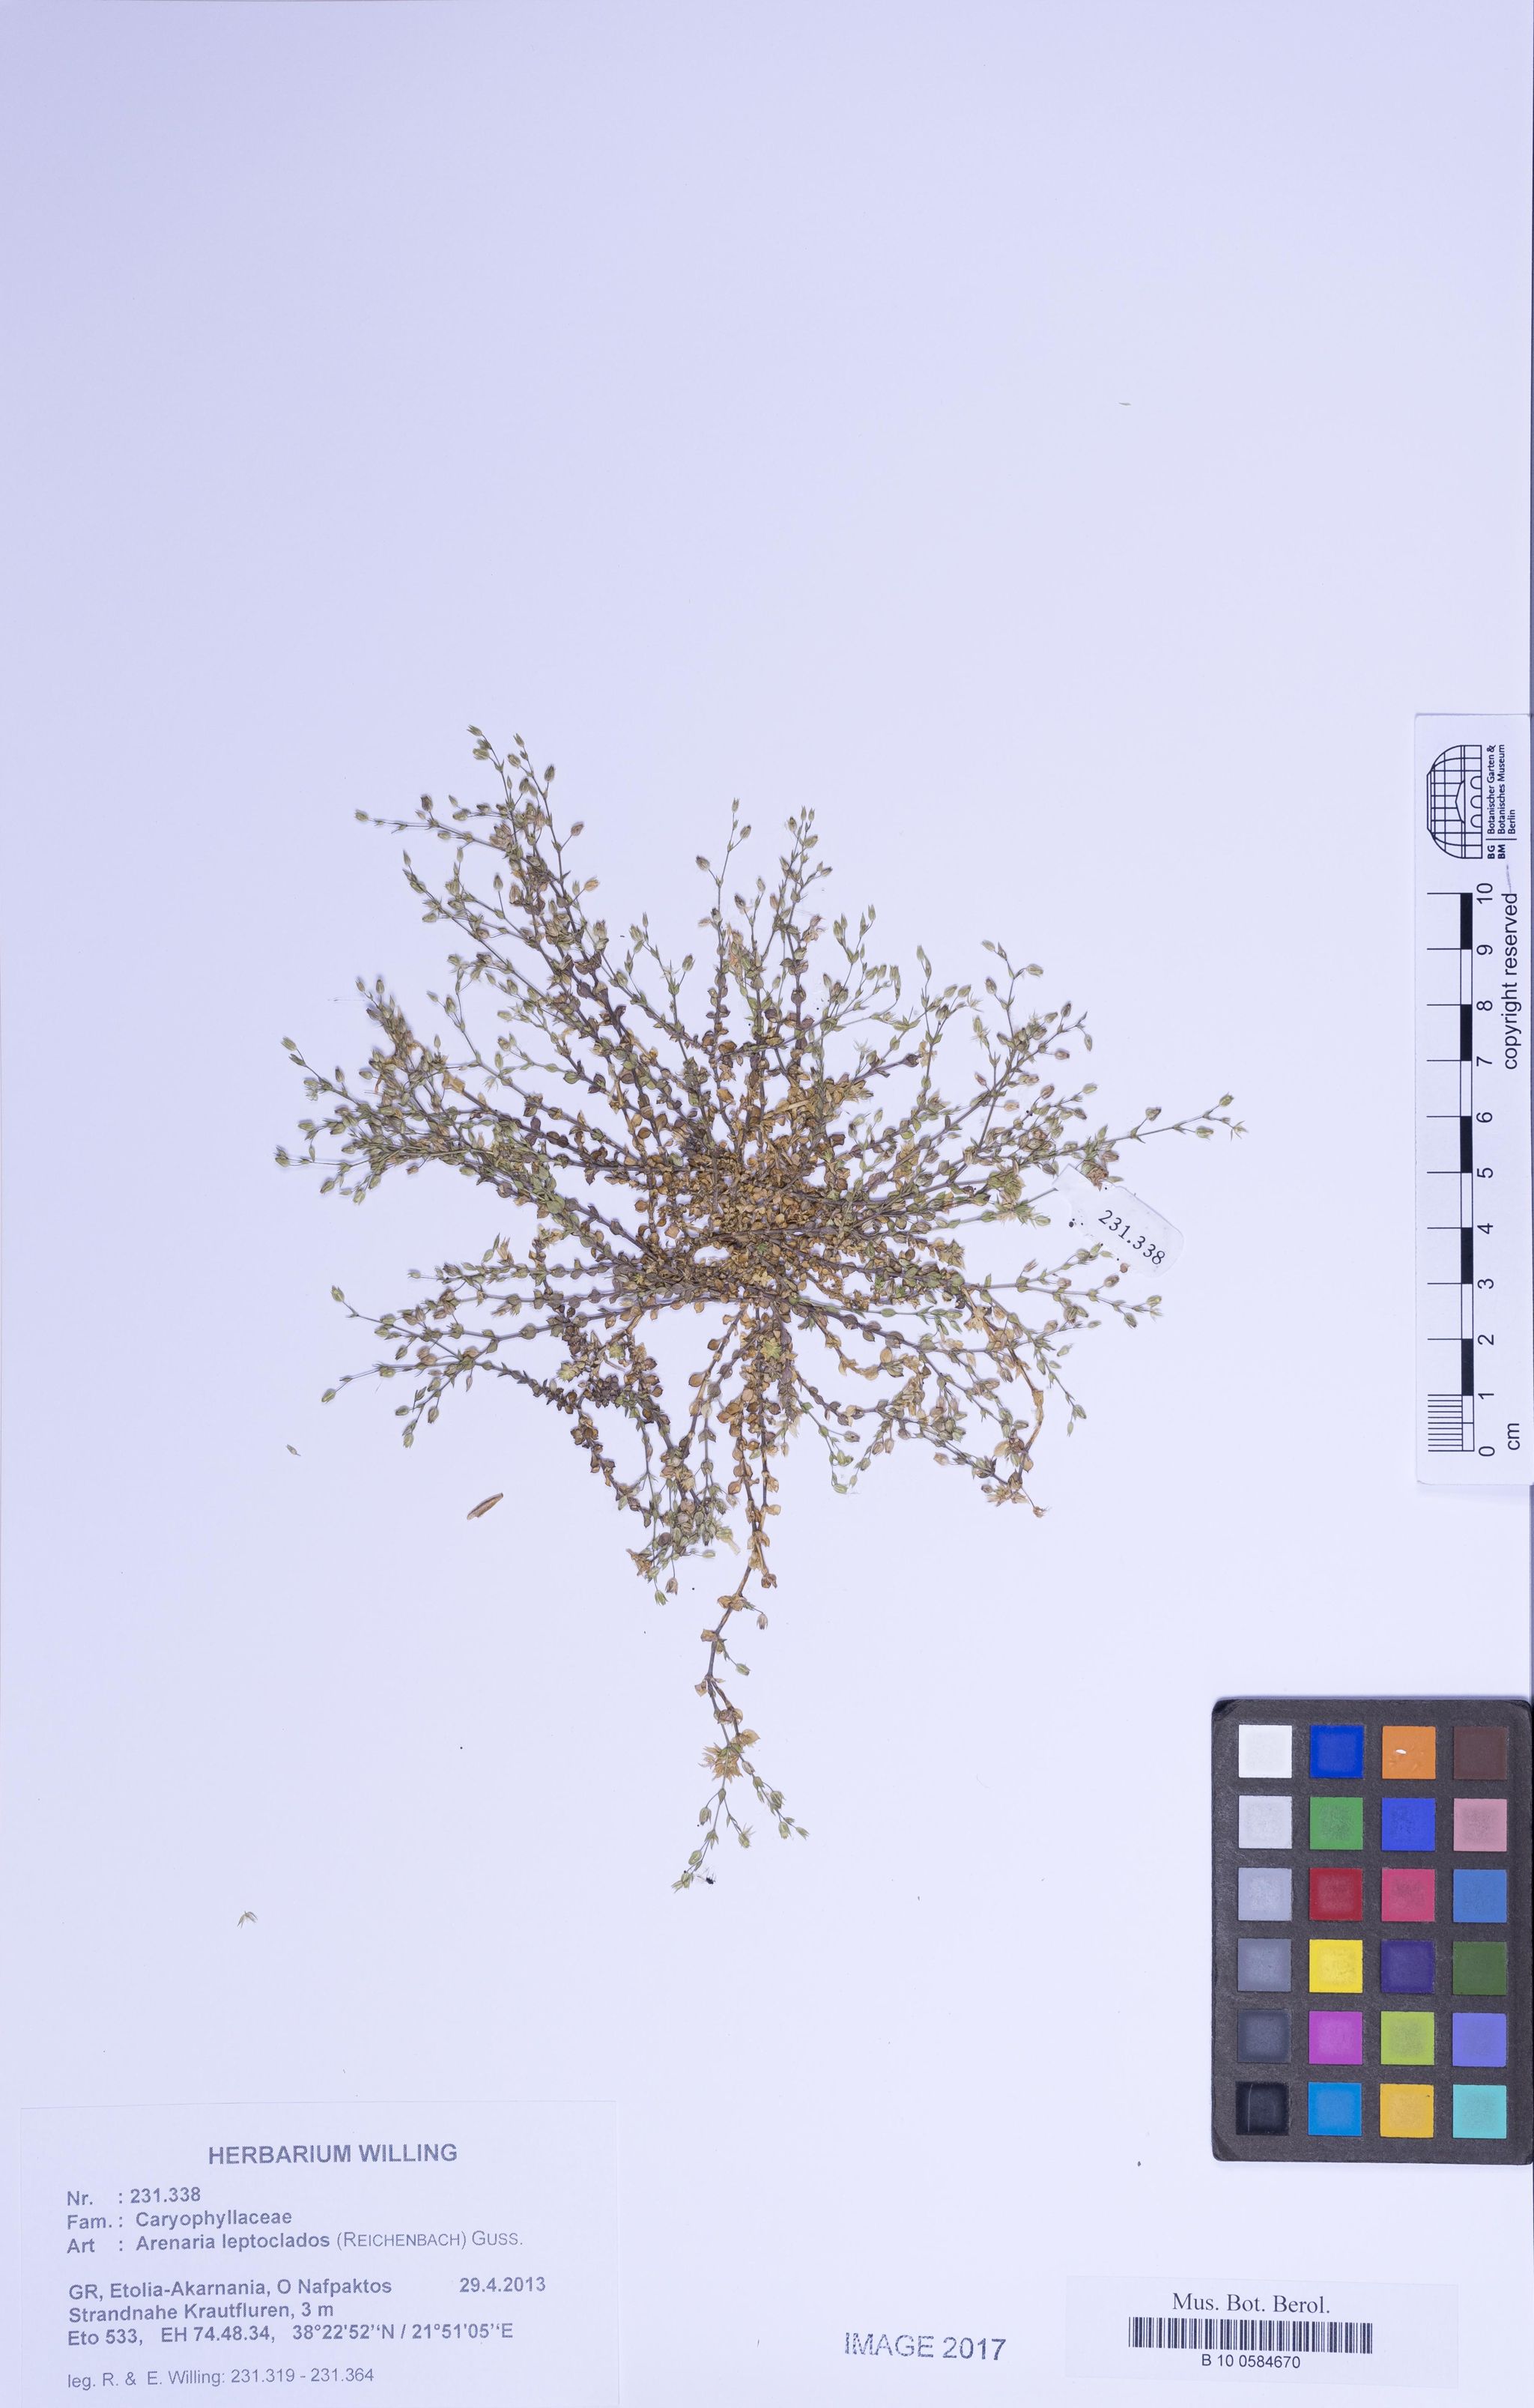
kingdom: Plantae
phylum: Tracheophyta
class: Magnoliopsida
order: Caryophyllales
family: Caryophyllaceae
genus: Arenaria
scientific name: Arenaria leptoclados
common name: Thyme-leaved sandwort
